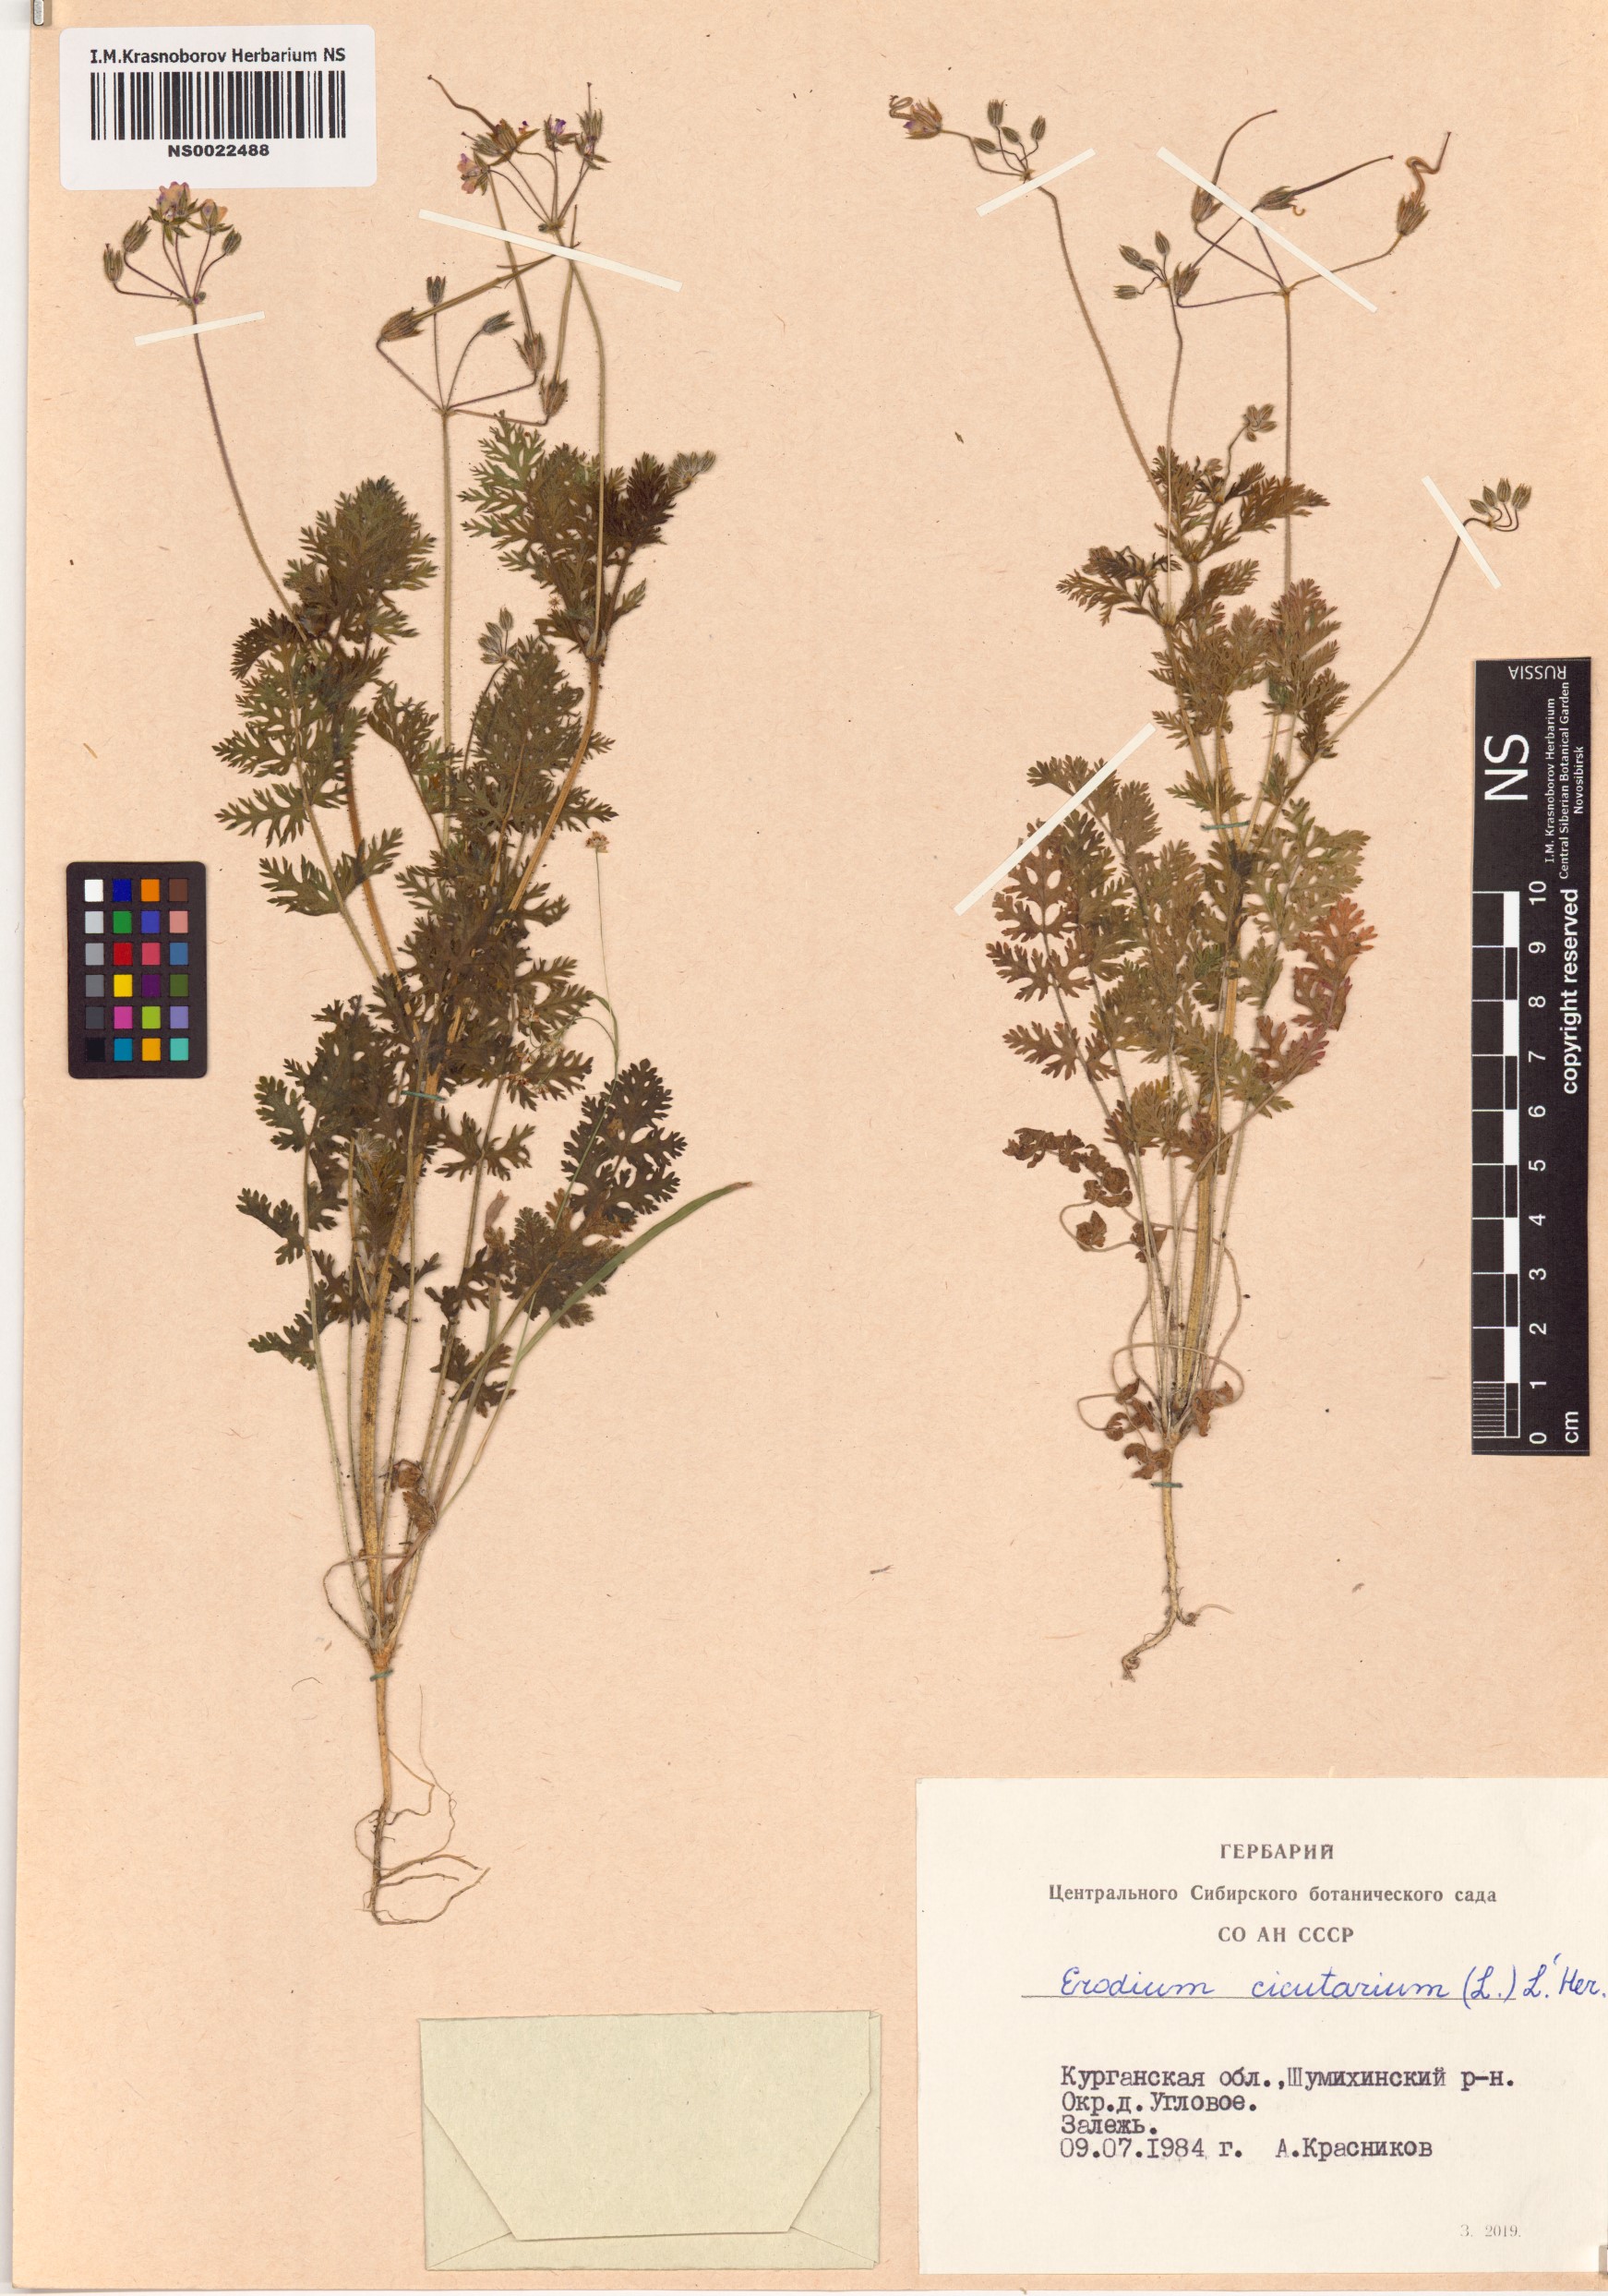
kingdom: Plantae
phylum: Tracheophyta
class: Magnoliopsida
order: Geraniales
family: Geraniaceae
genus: Erodium
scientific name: Erodium cicutarium
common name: Common stork's-bill
